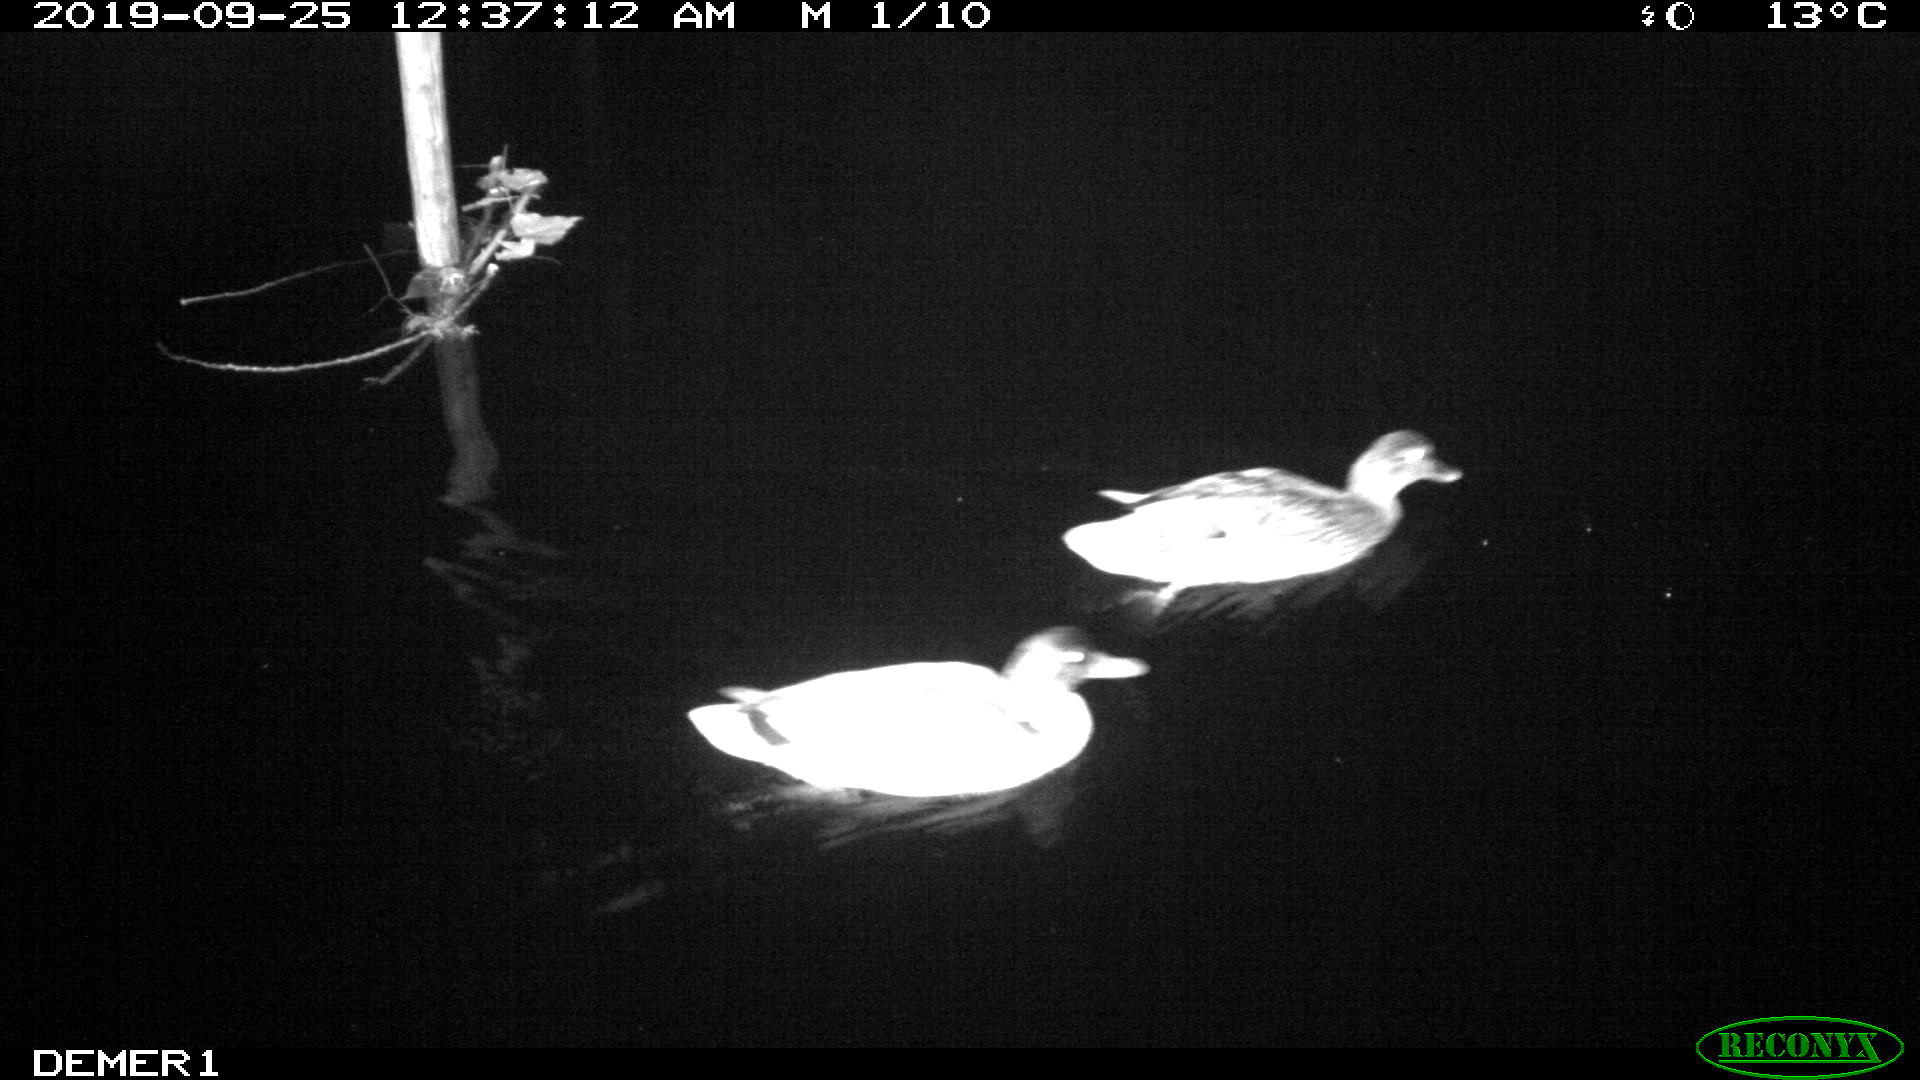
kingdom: Animalia
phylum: Chordata
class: Aves
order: Anseriformes
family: Anatidae
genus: Anas
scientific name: Anas platyrhynchos
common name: Mallard
